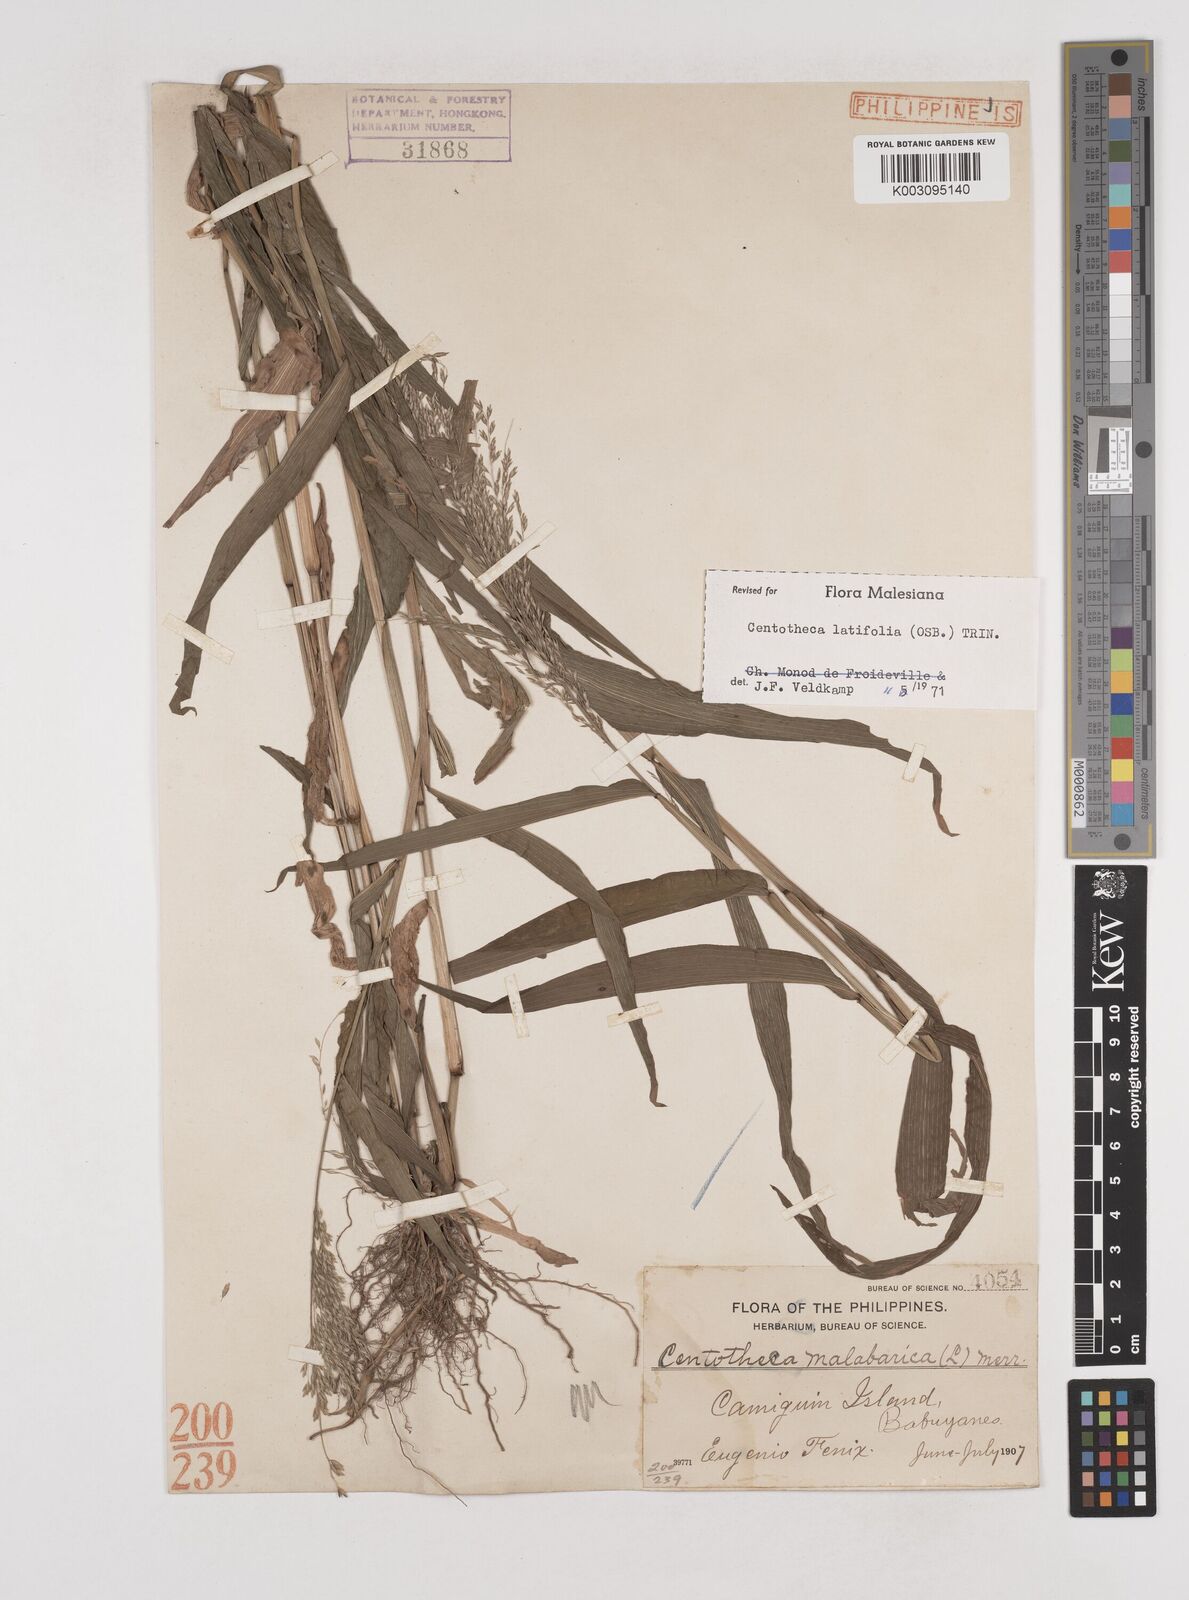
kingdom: Plantae
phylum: Tracheophyta
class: Liliopsida
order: Poales
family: Poaceae
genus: Centotheca
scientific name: Centotheca lappacea
